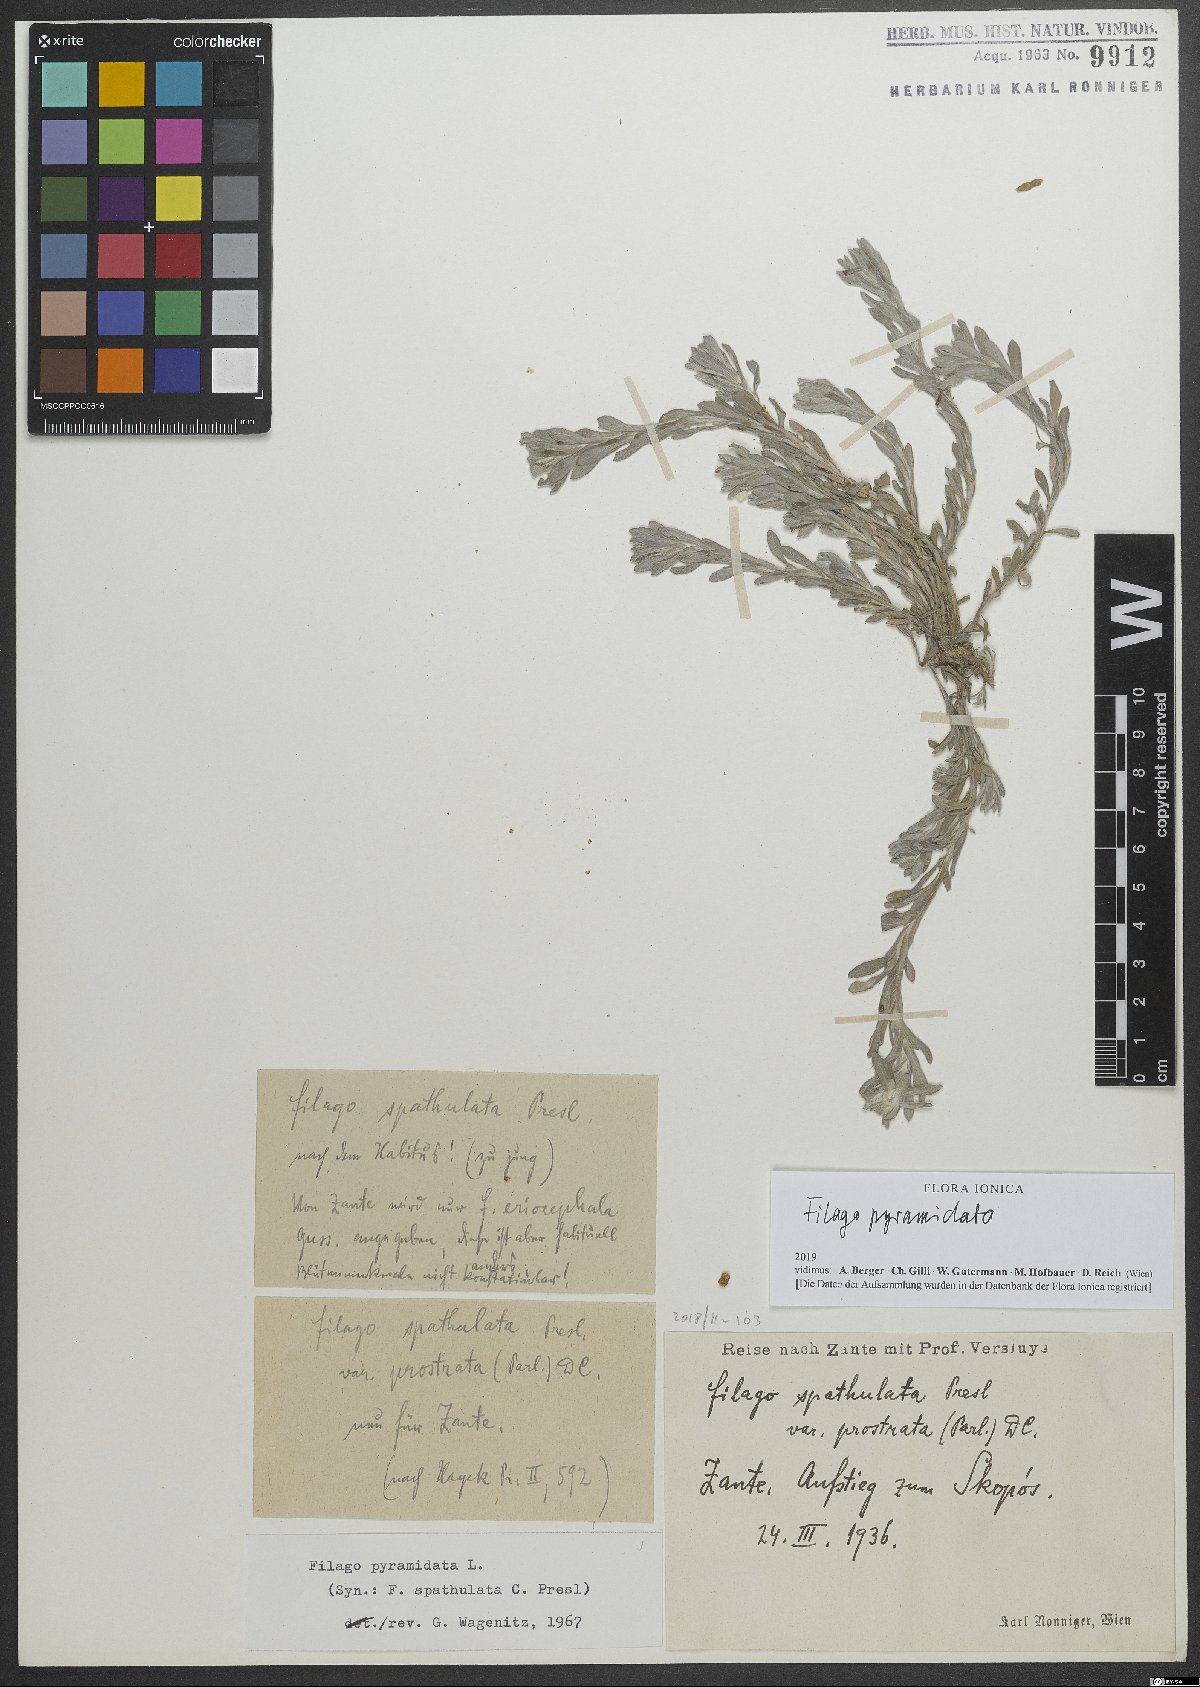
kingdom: Plantae
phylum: Tracheophyta
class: Magnoliopsida
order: Asterales
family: Asteraceae
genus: Filago
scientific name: Filago pyramidata
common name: Broad-leaved cudweed
